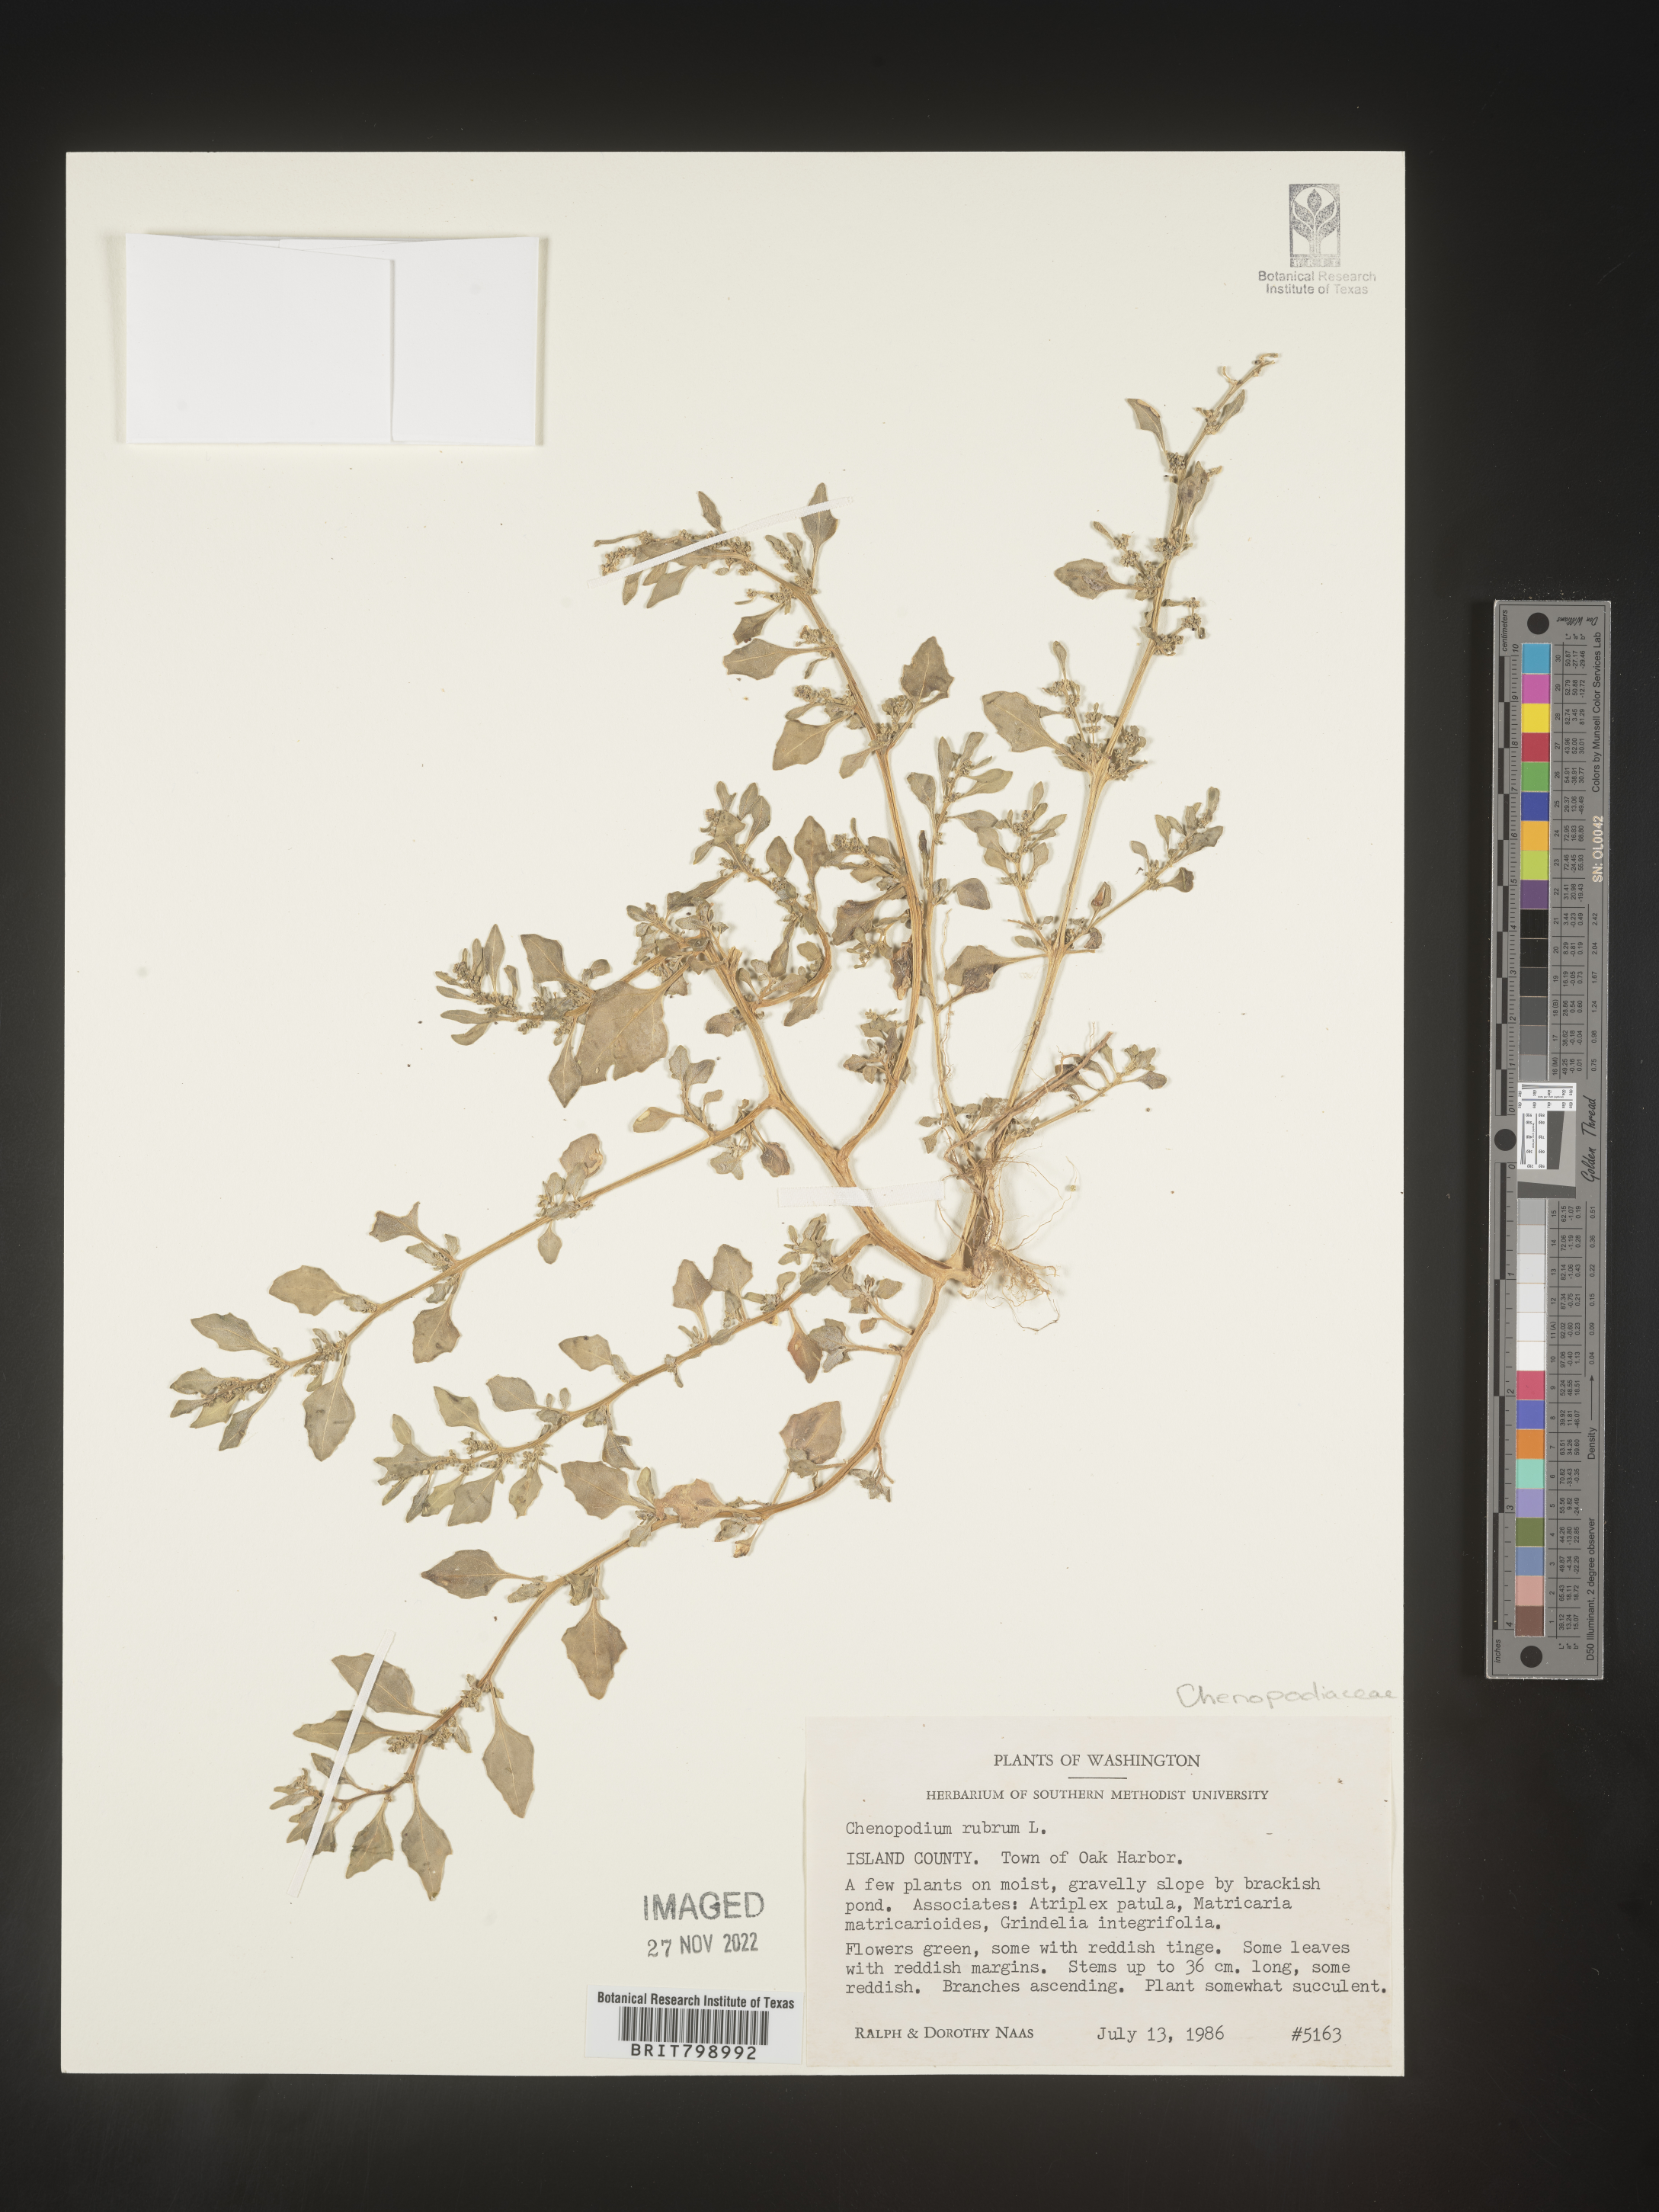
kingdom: Plantae
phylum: Tracheophyta
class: Magnoliopsida
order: Caryophyllales
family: Amaranthaceae
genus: Oxybasis
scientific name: Oxybasis rubra
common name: Red goosefoot
